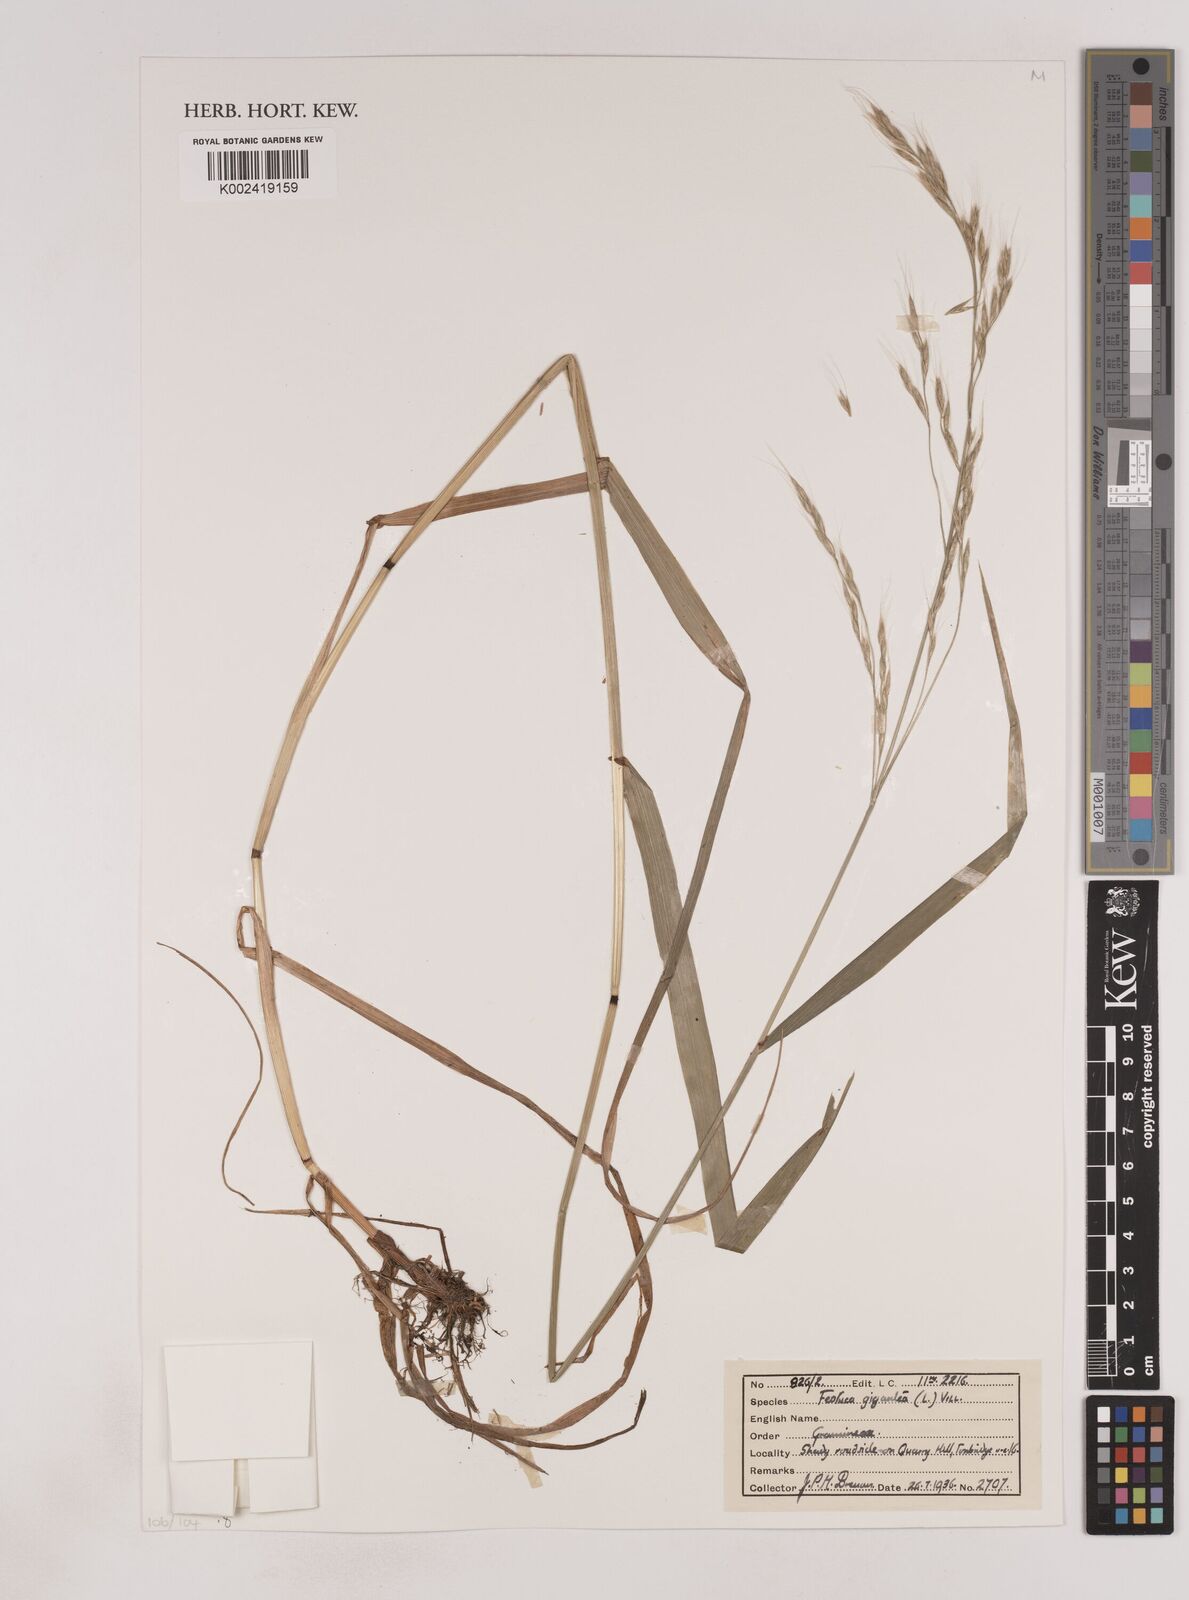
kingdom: Plantae
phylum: Tracheophyta
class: Liliopsida
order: Poales
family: Poaceae
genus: Lolium
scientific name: Lolium giganteum
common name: Giant fescue
